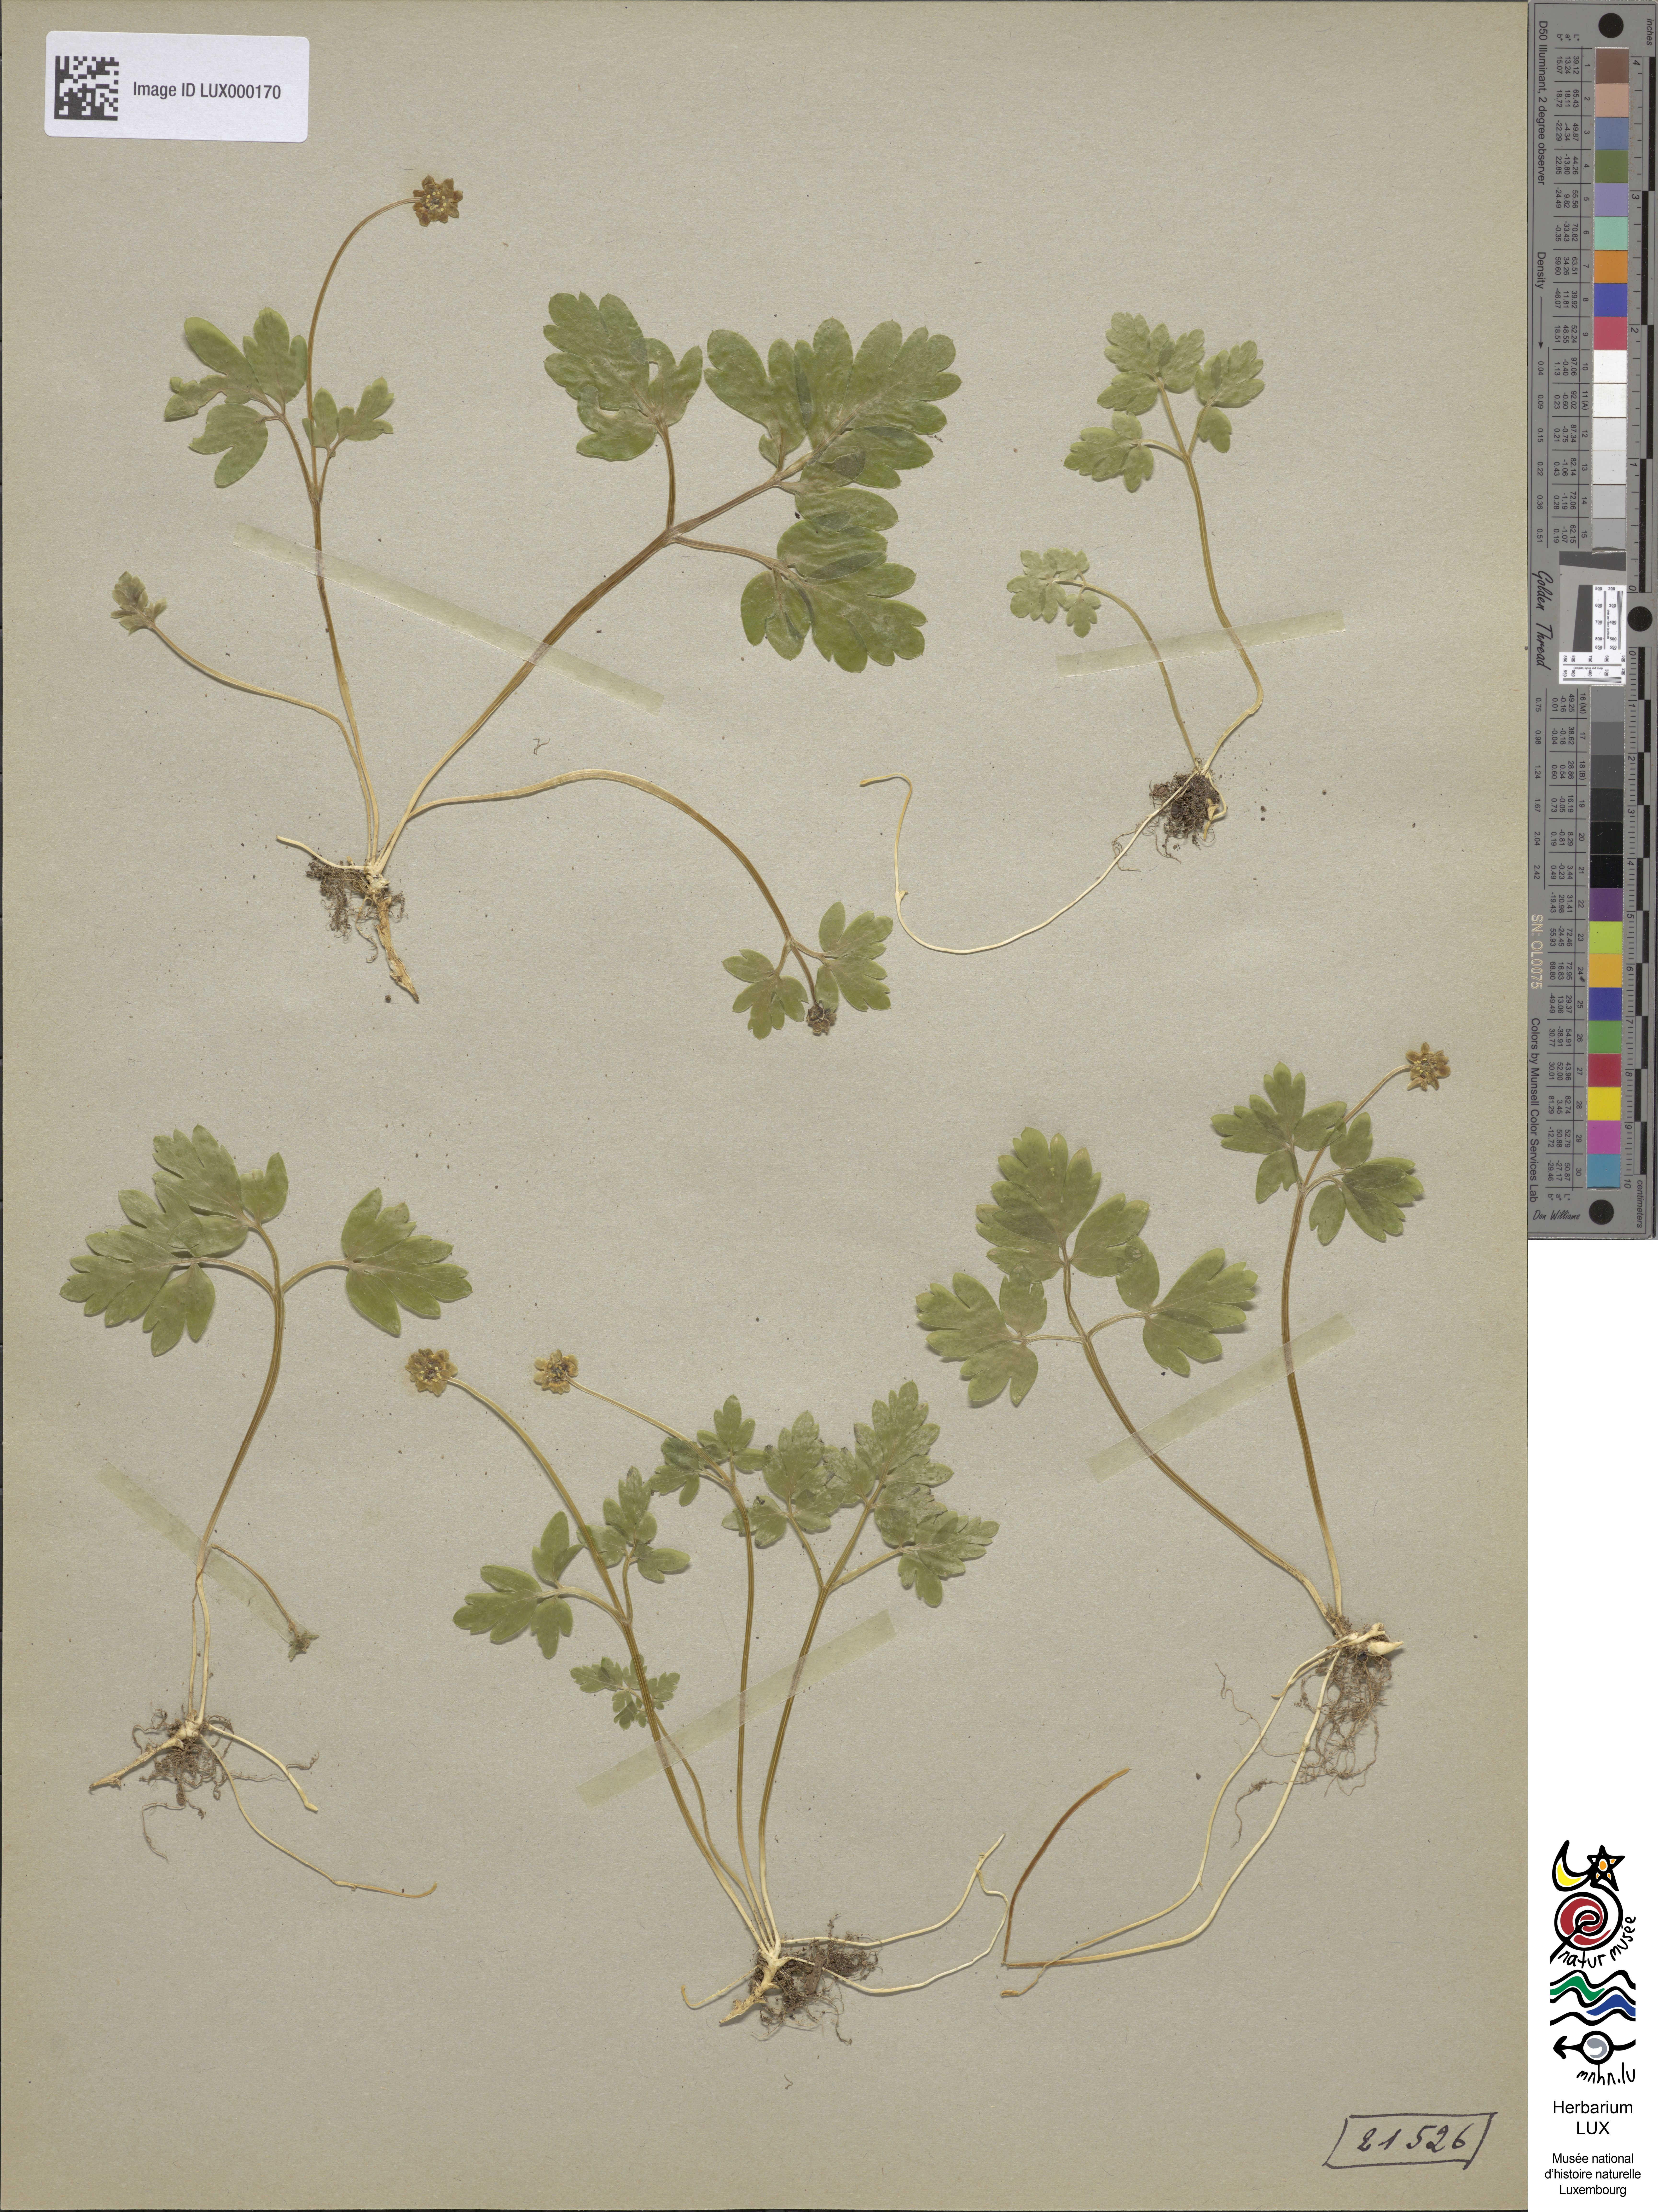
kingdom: Plantae
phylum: Tracheophyta
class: Magnoliopsida
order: Dipsacales
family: Viburnaceae
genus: Adoxa
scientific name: Adoxa moschatellina
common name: Moschatel
